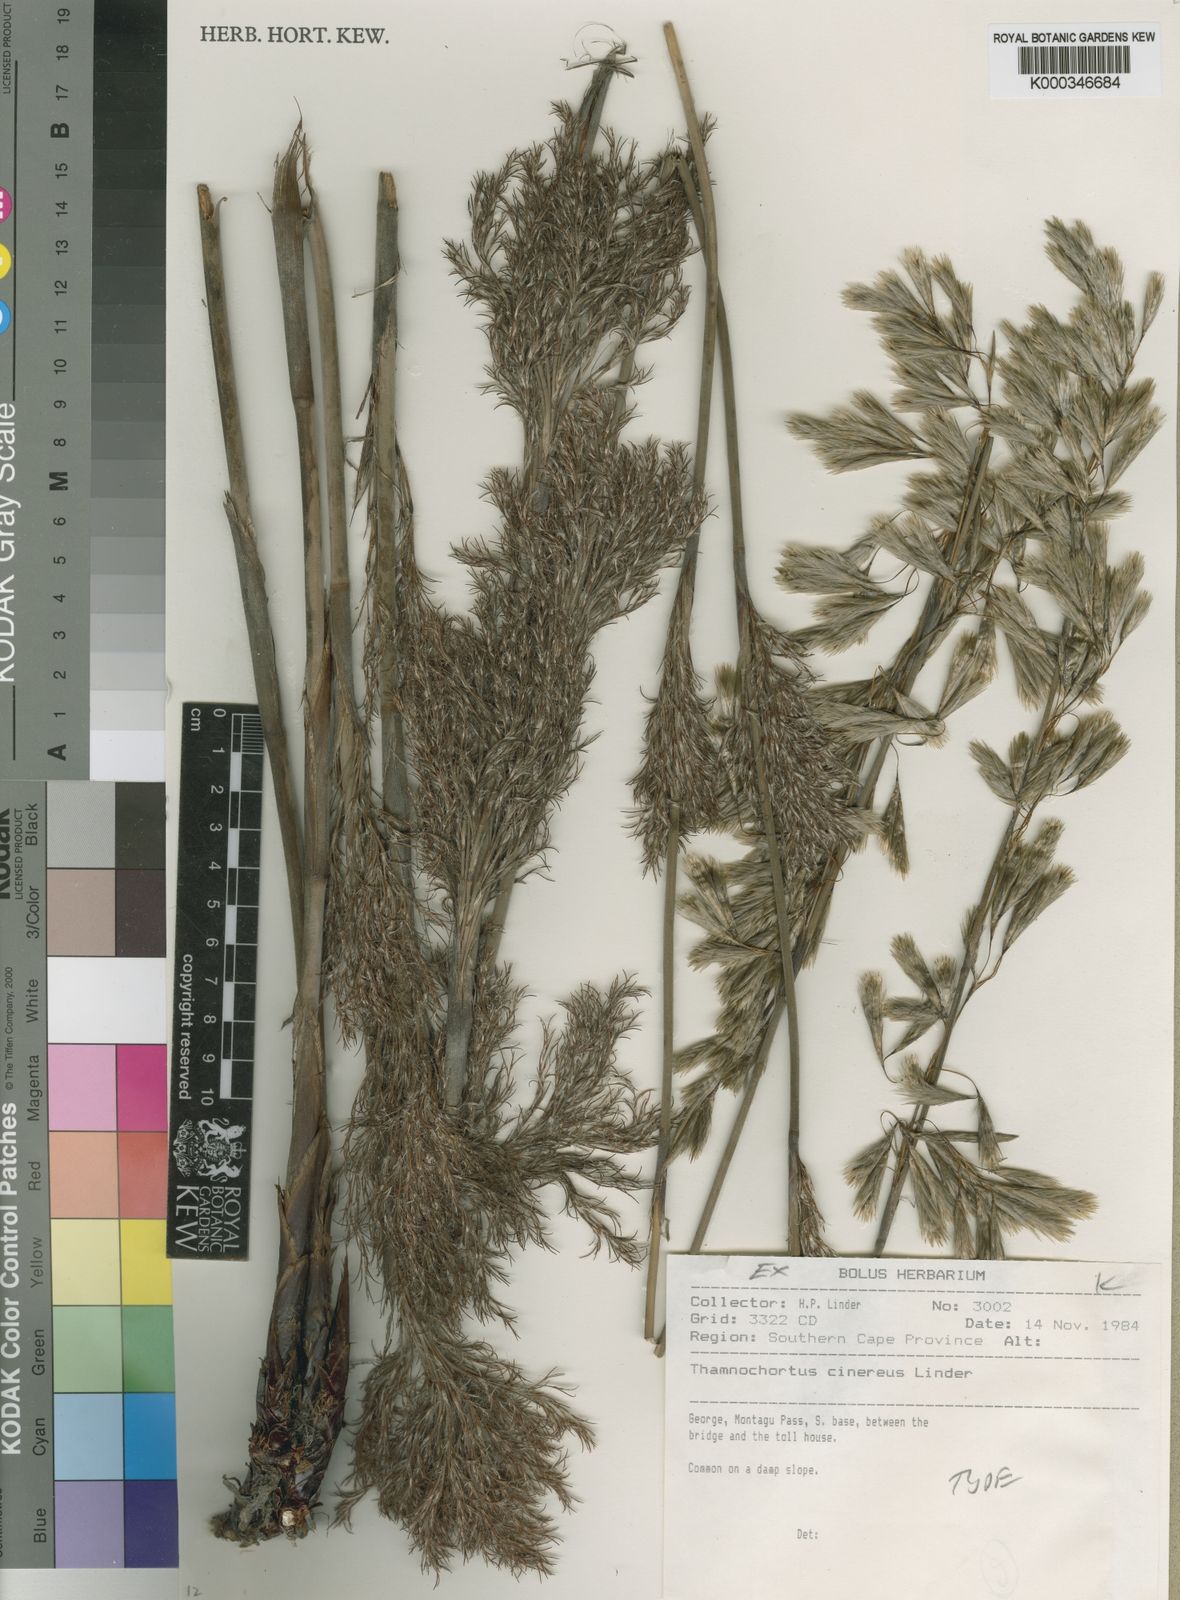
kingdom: Plantae
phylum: Tracheophyta
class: Liliopsida
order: Poales
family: Restionaceae
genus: Thamnochortus
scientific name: Thamnochortus cinereus
